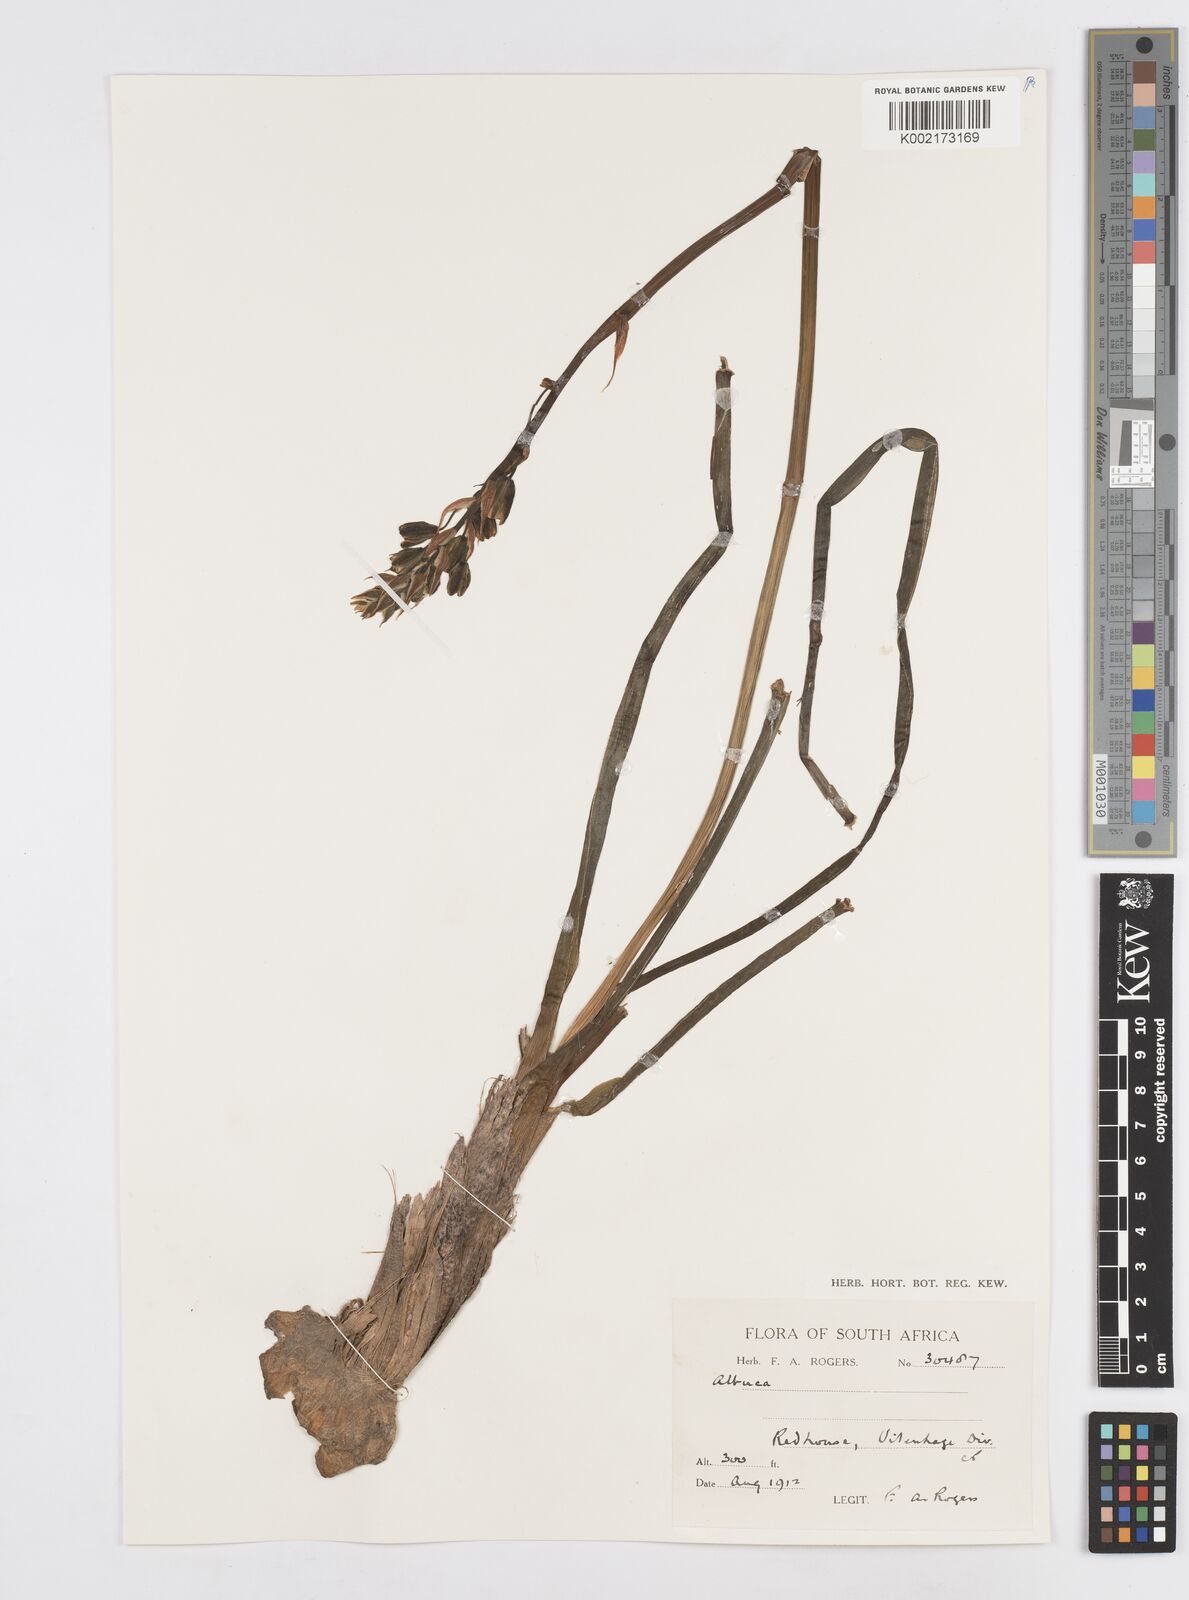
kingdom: Plantae
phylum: Tracheophyta
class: Liliopsida
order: Asparagales
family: Asparagaceae
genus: Albuca
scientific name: Albuca
